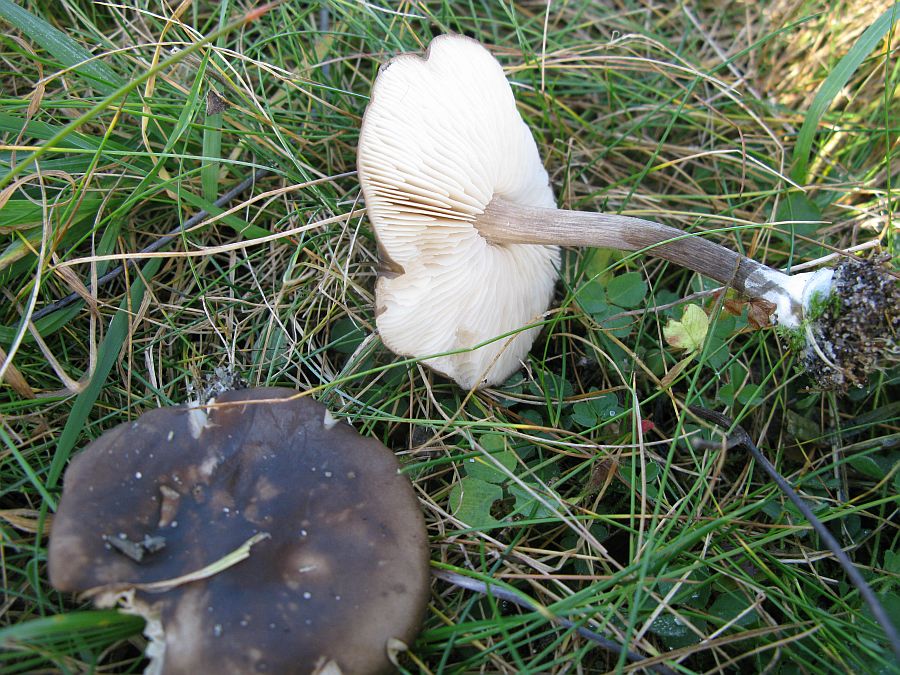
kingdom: Fungi
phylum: Basidiomycota
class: Agaricomycetes
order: Agaricales
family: Tricholomataceae
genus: Melanoleuca
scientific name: Melanoleuca polioleuca
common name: almindelig munkehat
